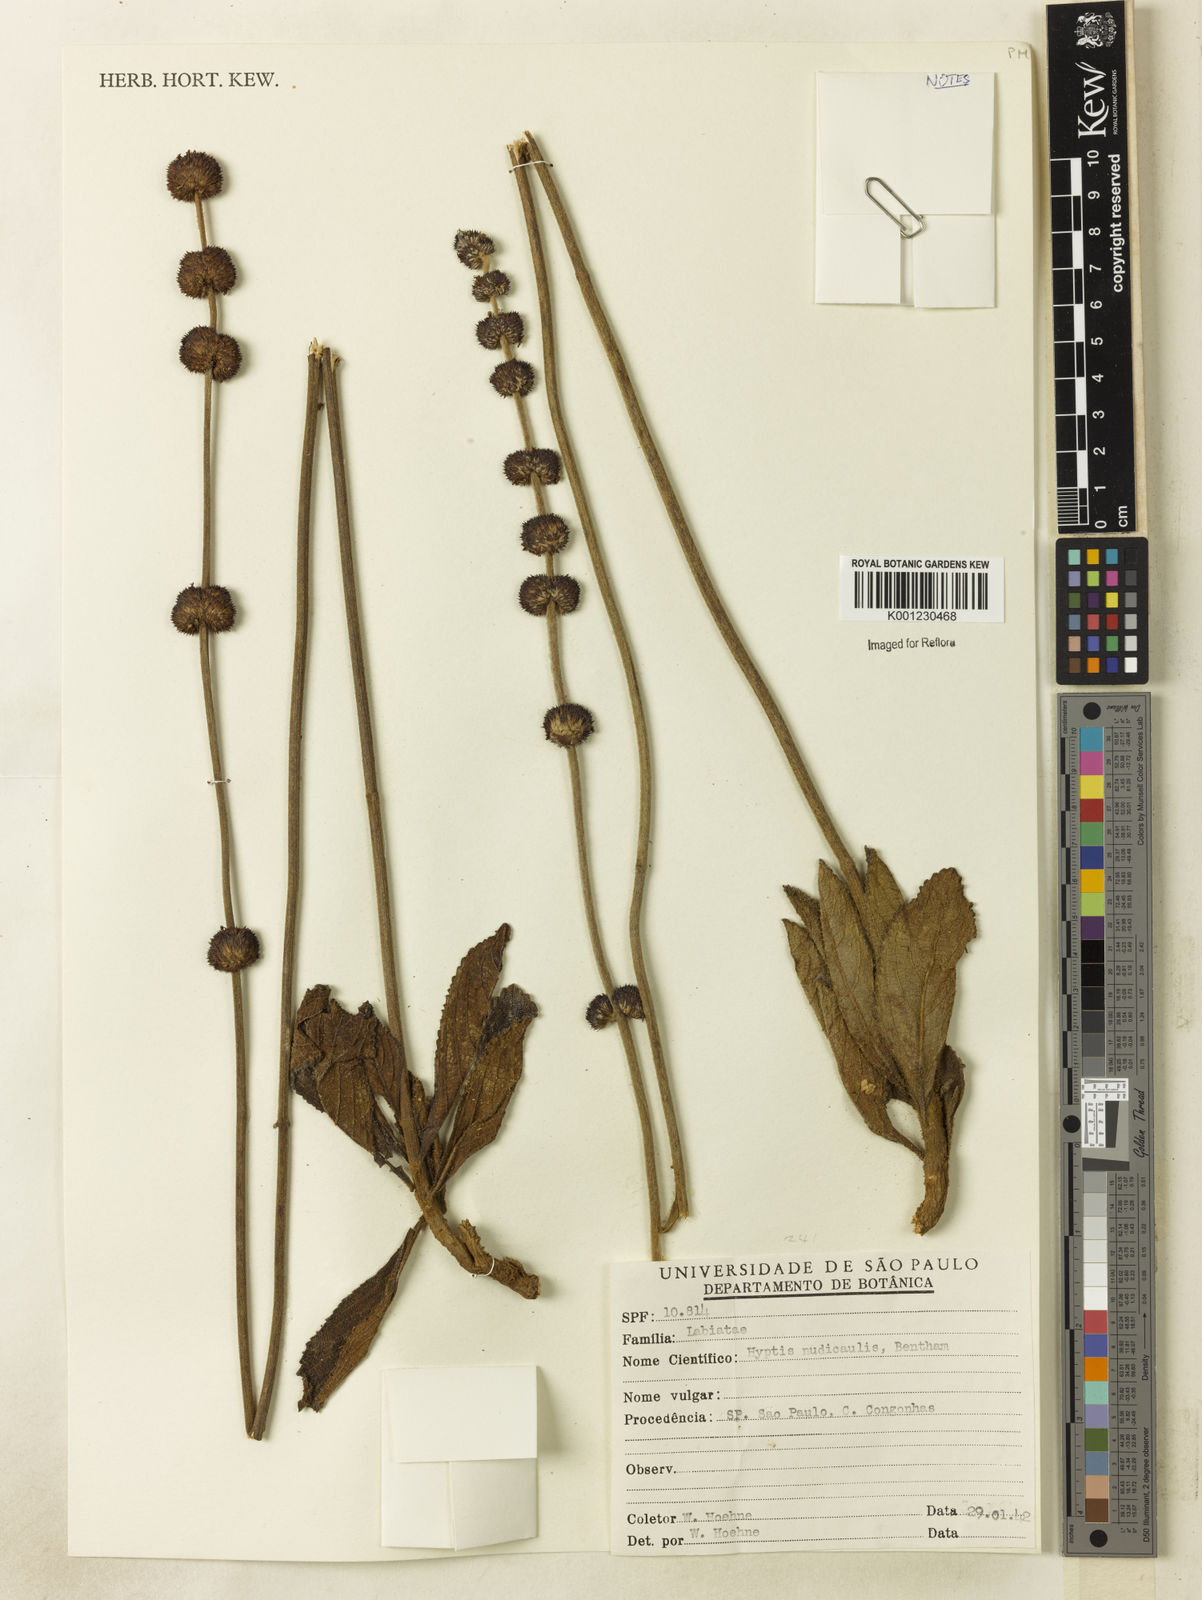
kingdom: Plantae
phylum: Tracheophyta
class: Magnoliopsida
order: Lamiales
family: Lamiaceae
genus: Hyptis
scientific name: Hyptis nudicaulis
